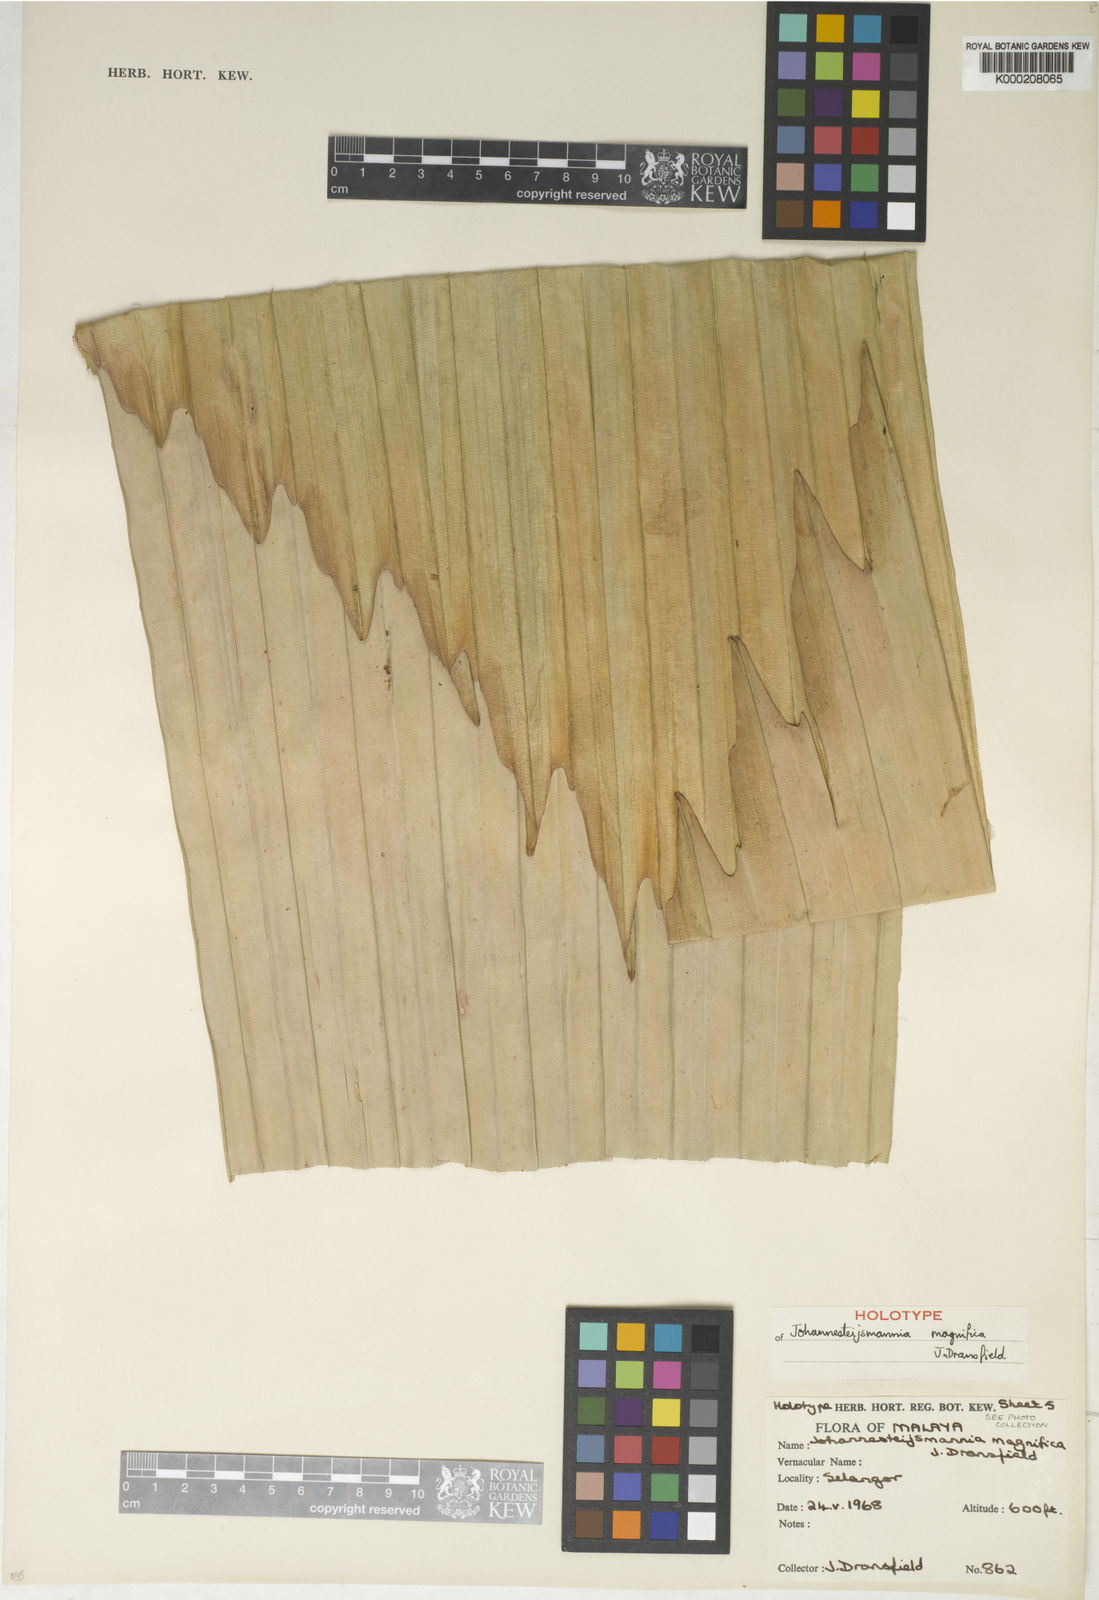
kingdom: Plantae
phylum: Tracheophyta
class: Liliopsida
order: Arecales
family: Arecaceae
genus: Johannesteijsmannia
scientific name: Johannesteijsmannia magnifica
